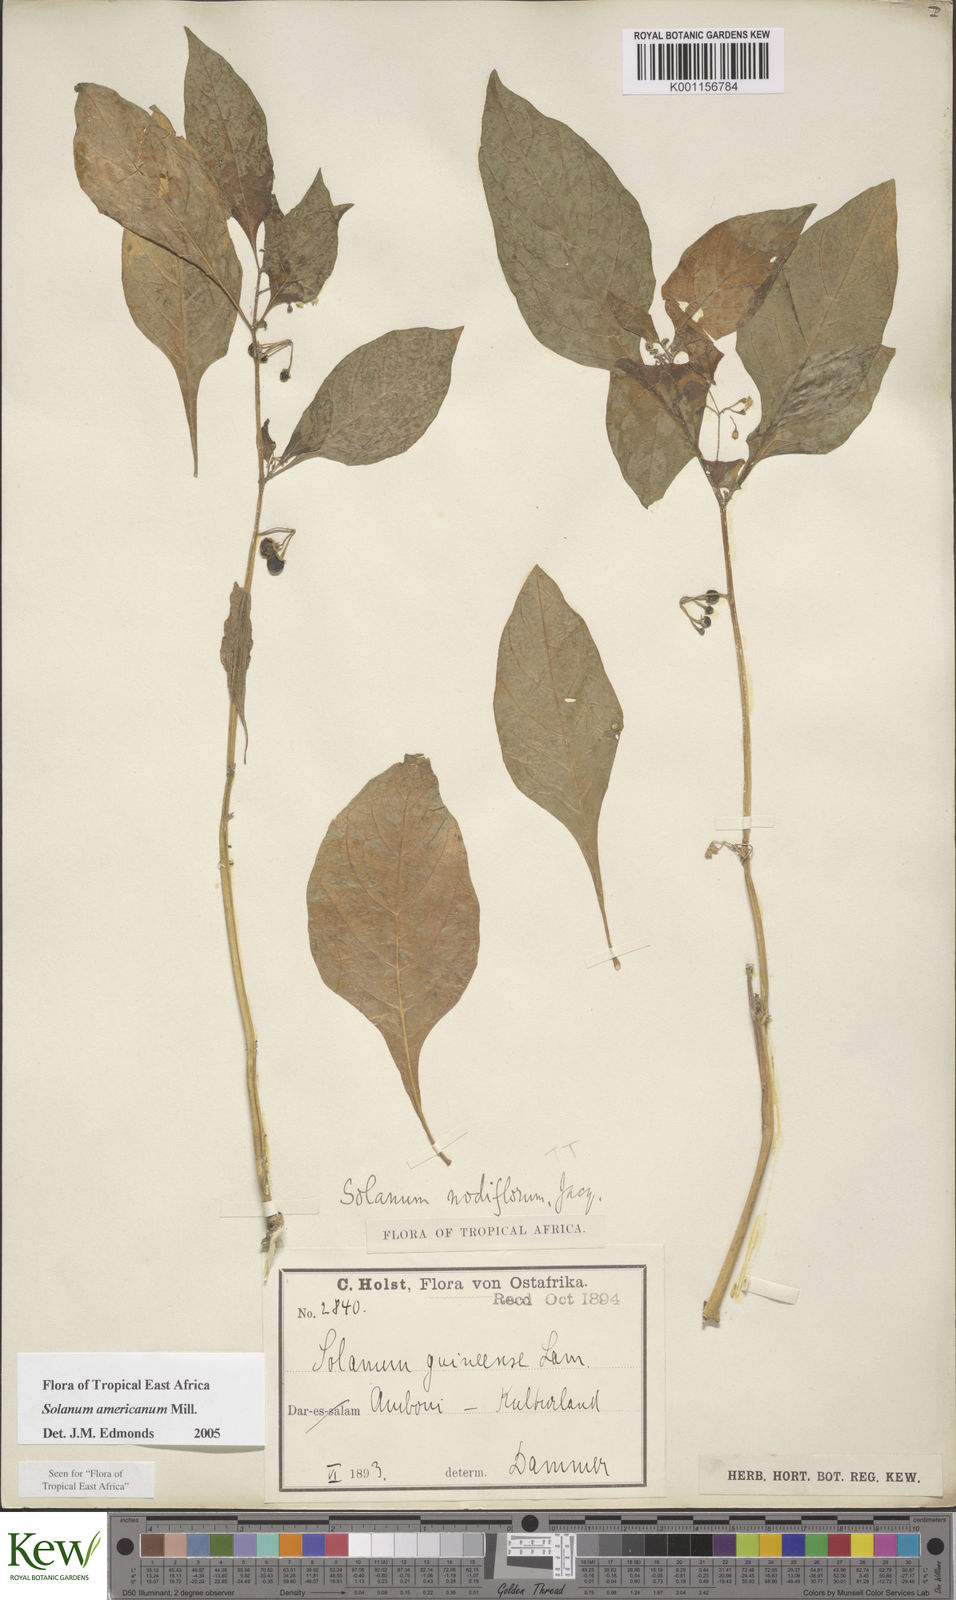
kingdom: Plantae
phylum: Tracheophyta
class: Magnoliopsida
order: Solanales
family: Solanaceae
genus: Solanum
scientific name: Solanum americanum
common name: American black nightshade
